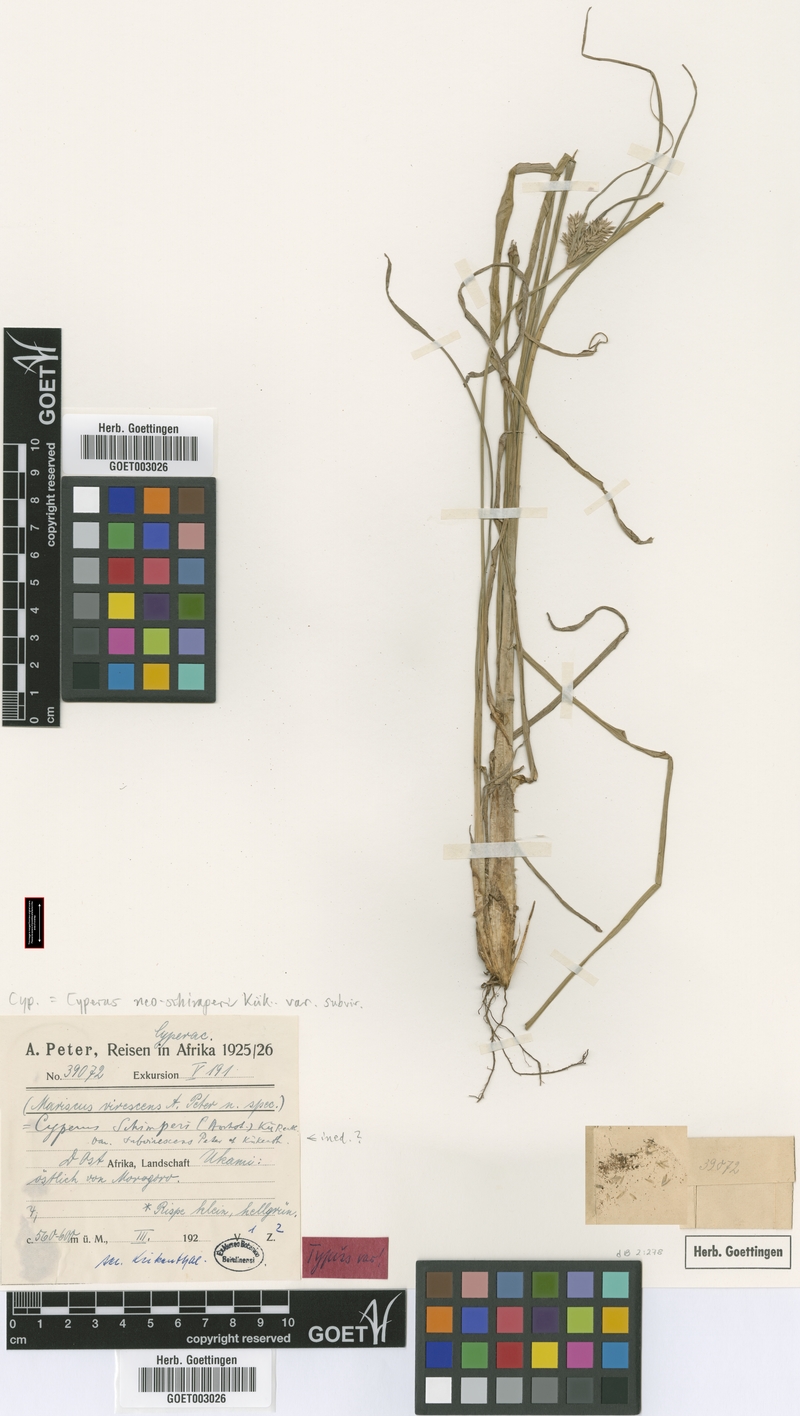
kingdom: Plantae
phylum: Tracheophyta
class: Liliopsida
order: Poales
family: Cyperaceae
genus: Cyperus
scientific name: Cyperus cruentus
